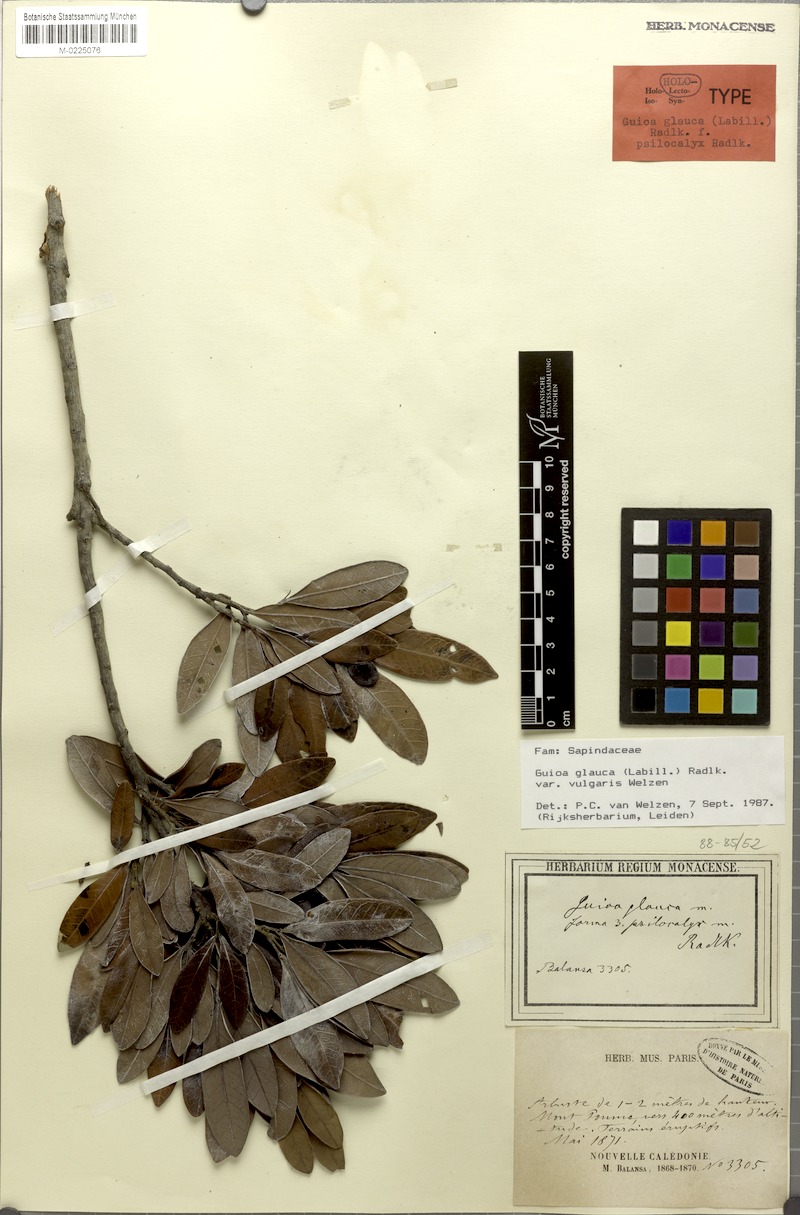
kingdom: Plantae
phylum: Tracheophyta
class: Magnoliopsida
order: Sapindales
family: Sapindaceae
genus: Guioa
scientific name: Guioa glauca
